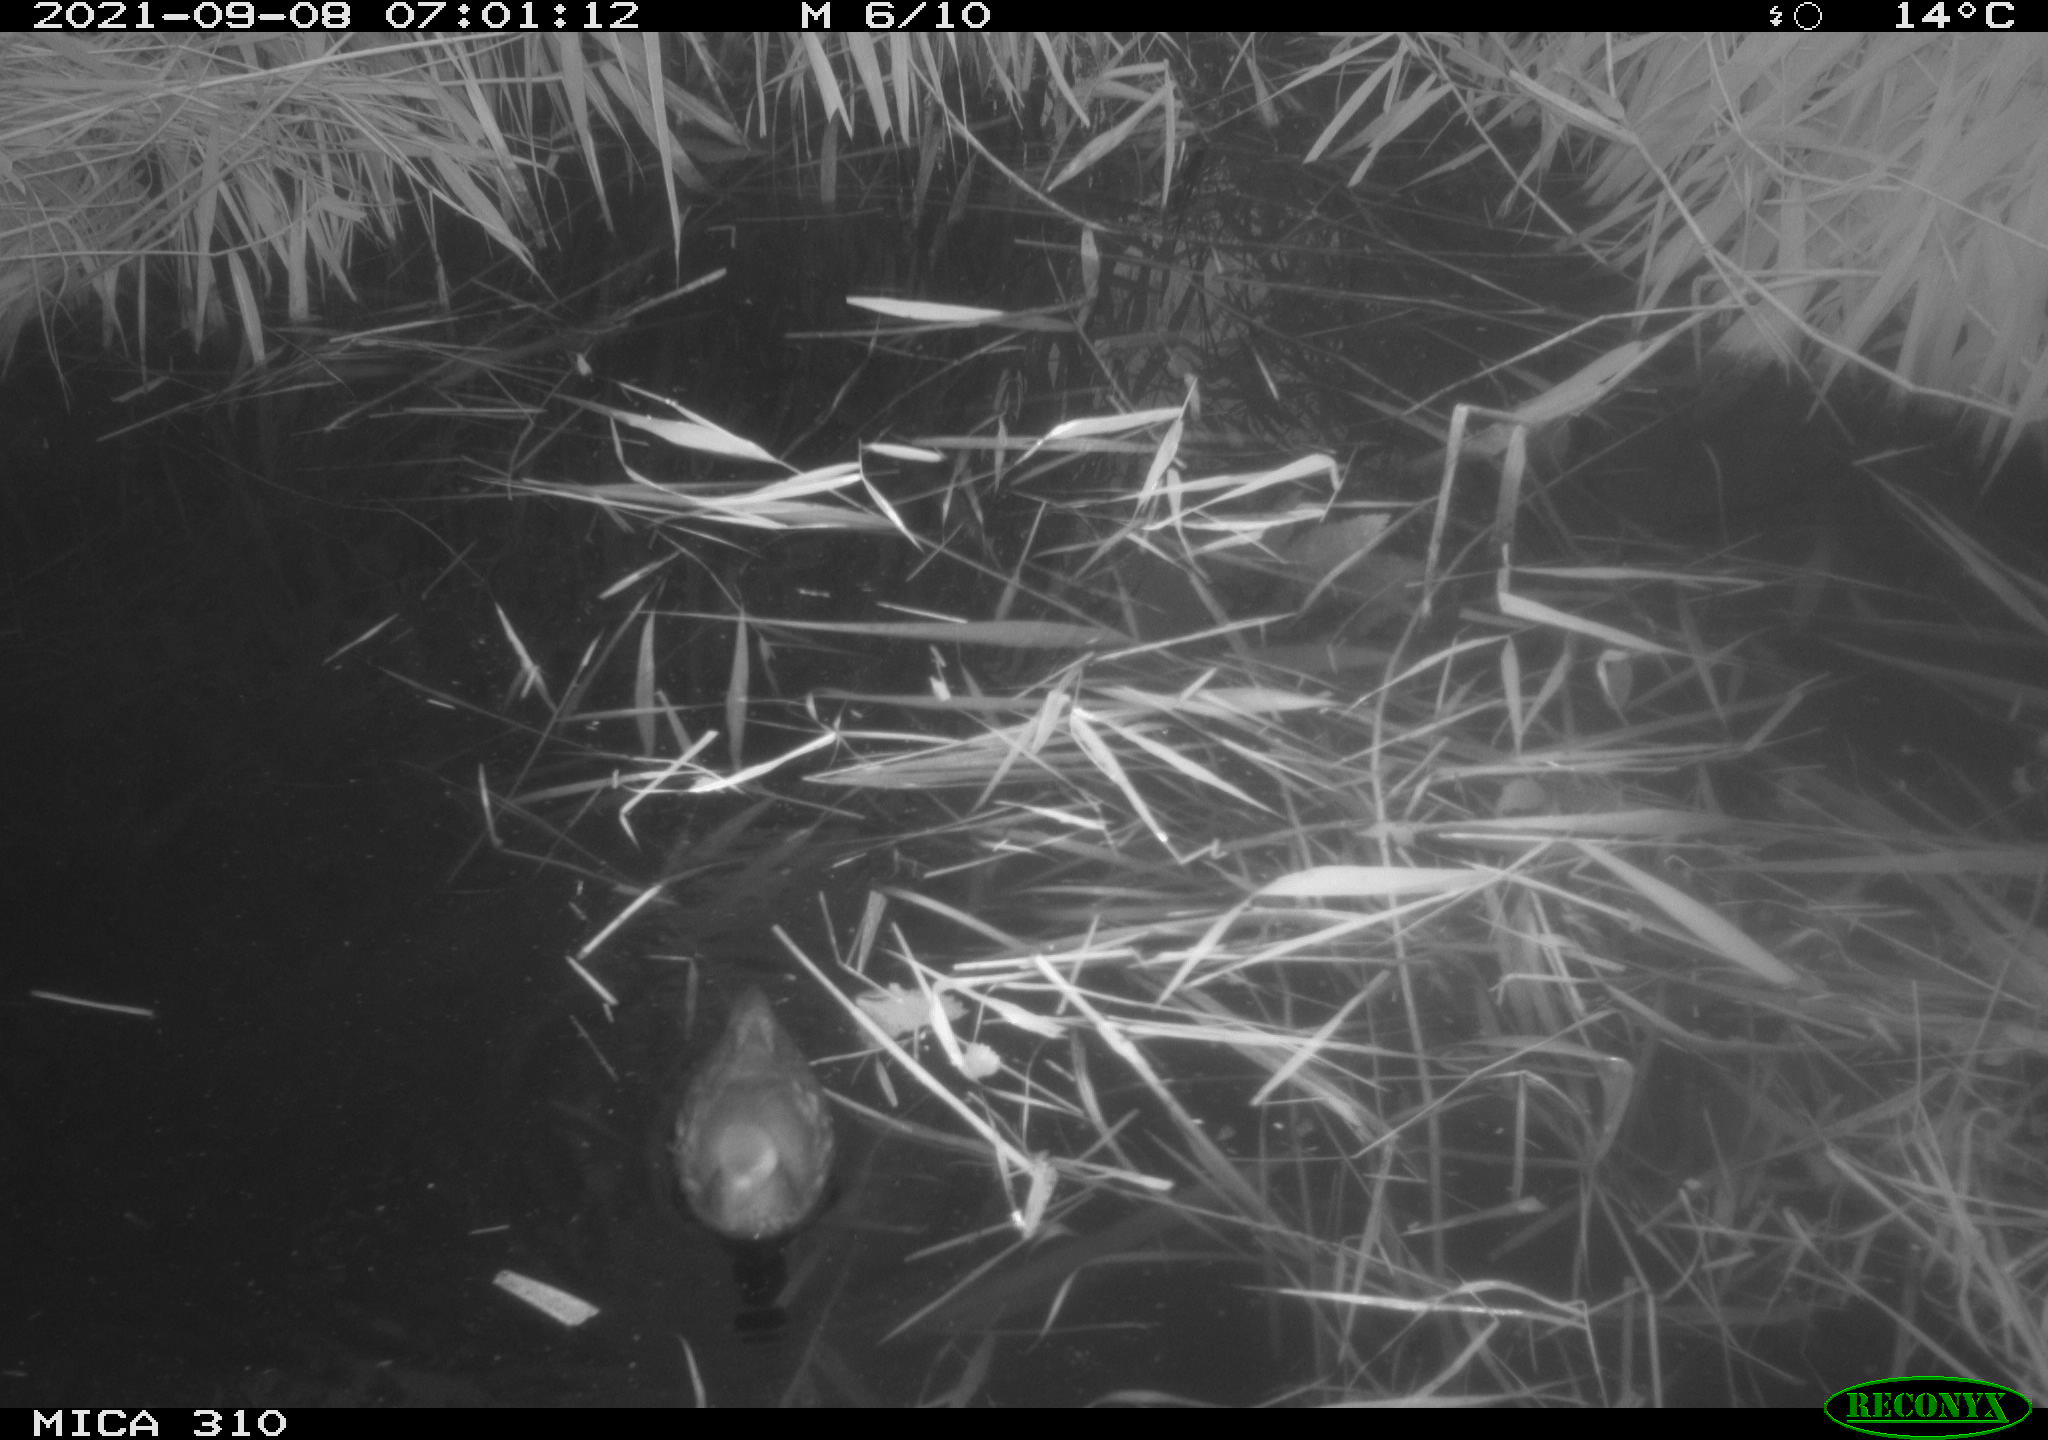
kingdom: Animalia
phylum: Chordata
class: Aves
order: Gruiformes
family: Rallidae
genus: Gallinula
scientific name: Gallinula chloropus
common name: Common moorhen
